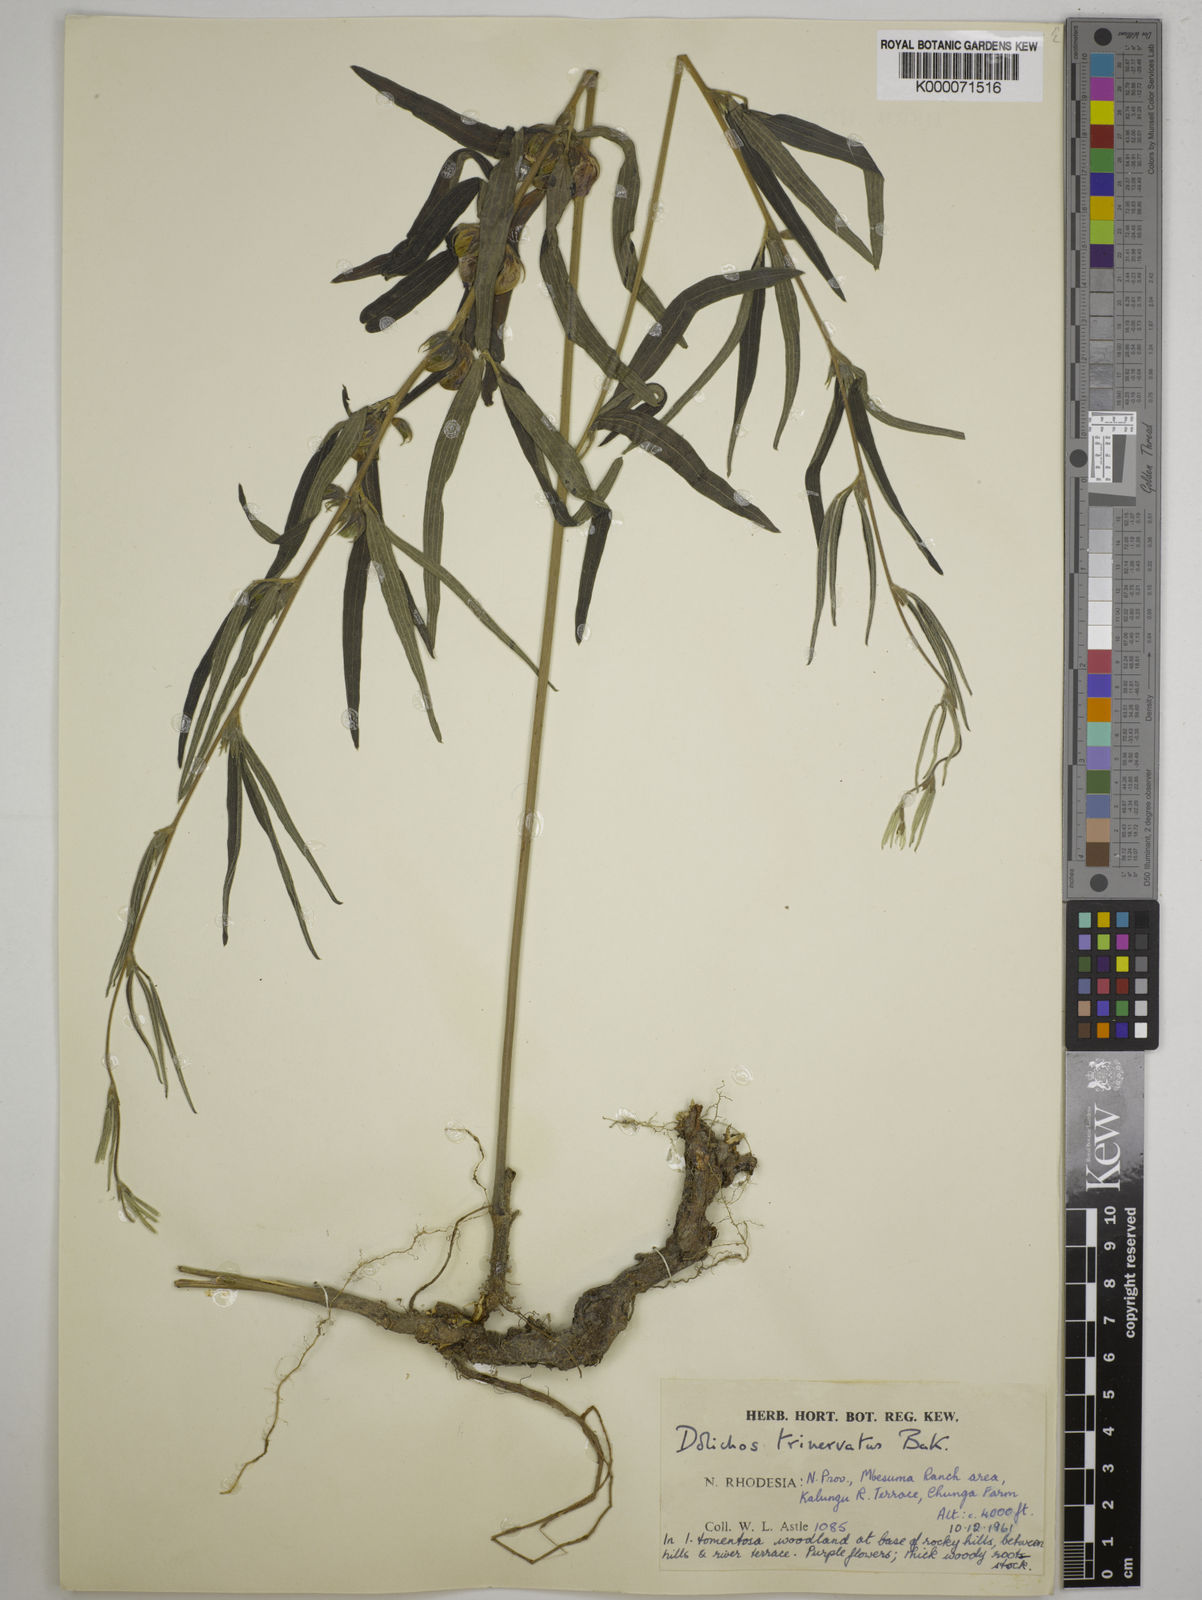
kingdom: Plantae
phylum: Tracheophyta
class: Magnoliopsida
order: Fabales
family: Fabaceae
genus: Dolichos
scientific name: Dolichos trinervatus
